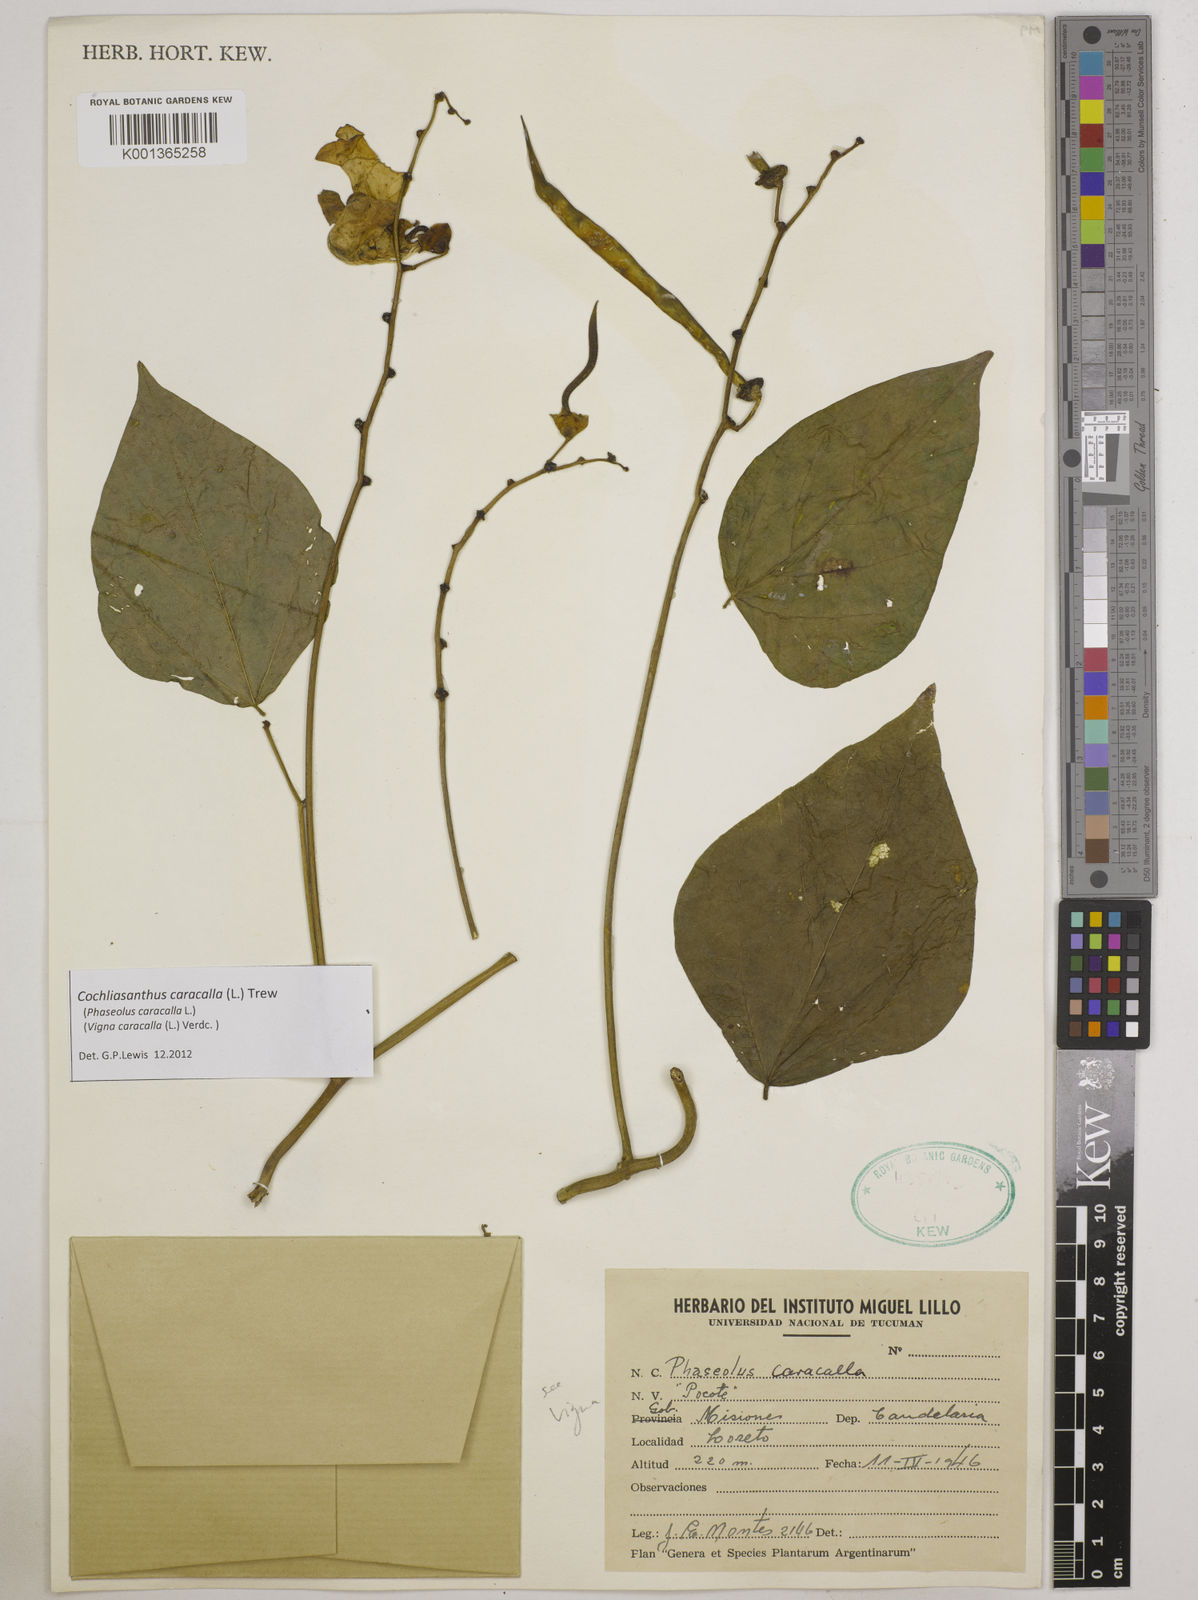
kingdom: Plantae
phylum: Tracheophyta
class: Magnoliopsida
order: Fabales
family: Fabaceae
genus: Cochliasanthus
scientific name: Cochliasanthus caracalla
